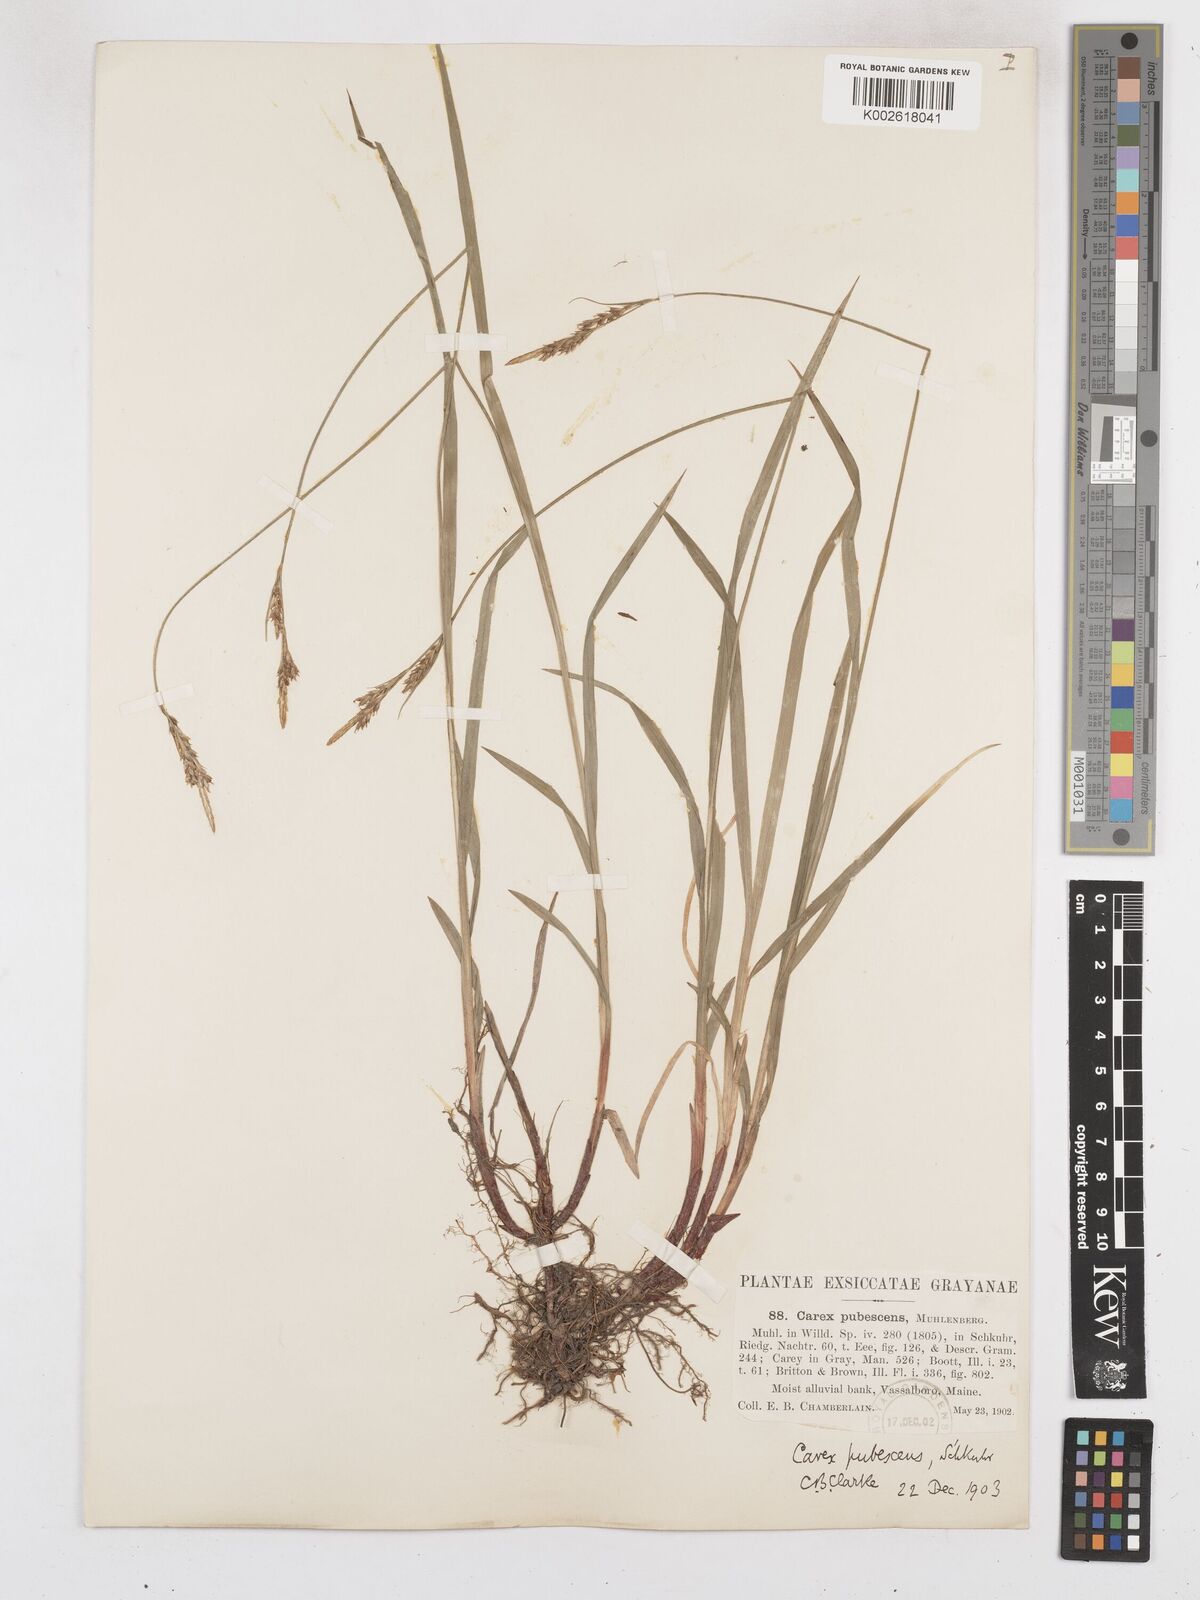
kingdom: Plantae
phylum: Tracheophyta
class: Liliopsida
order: Poales
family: Cyperaceae
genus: Carex
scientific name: Carex hirtifolia
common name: Hairy sedge
